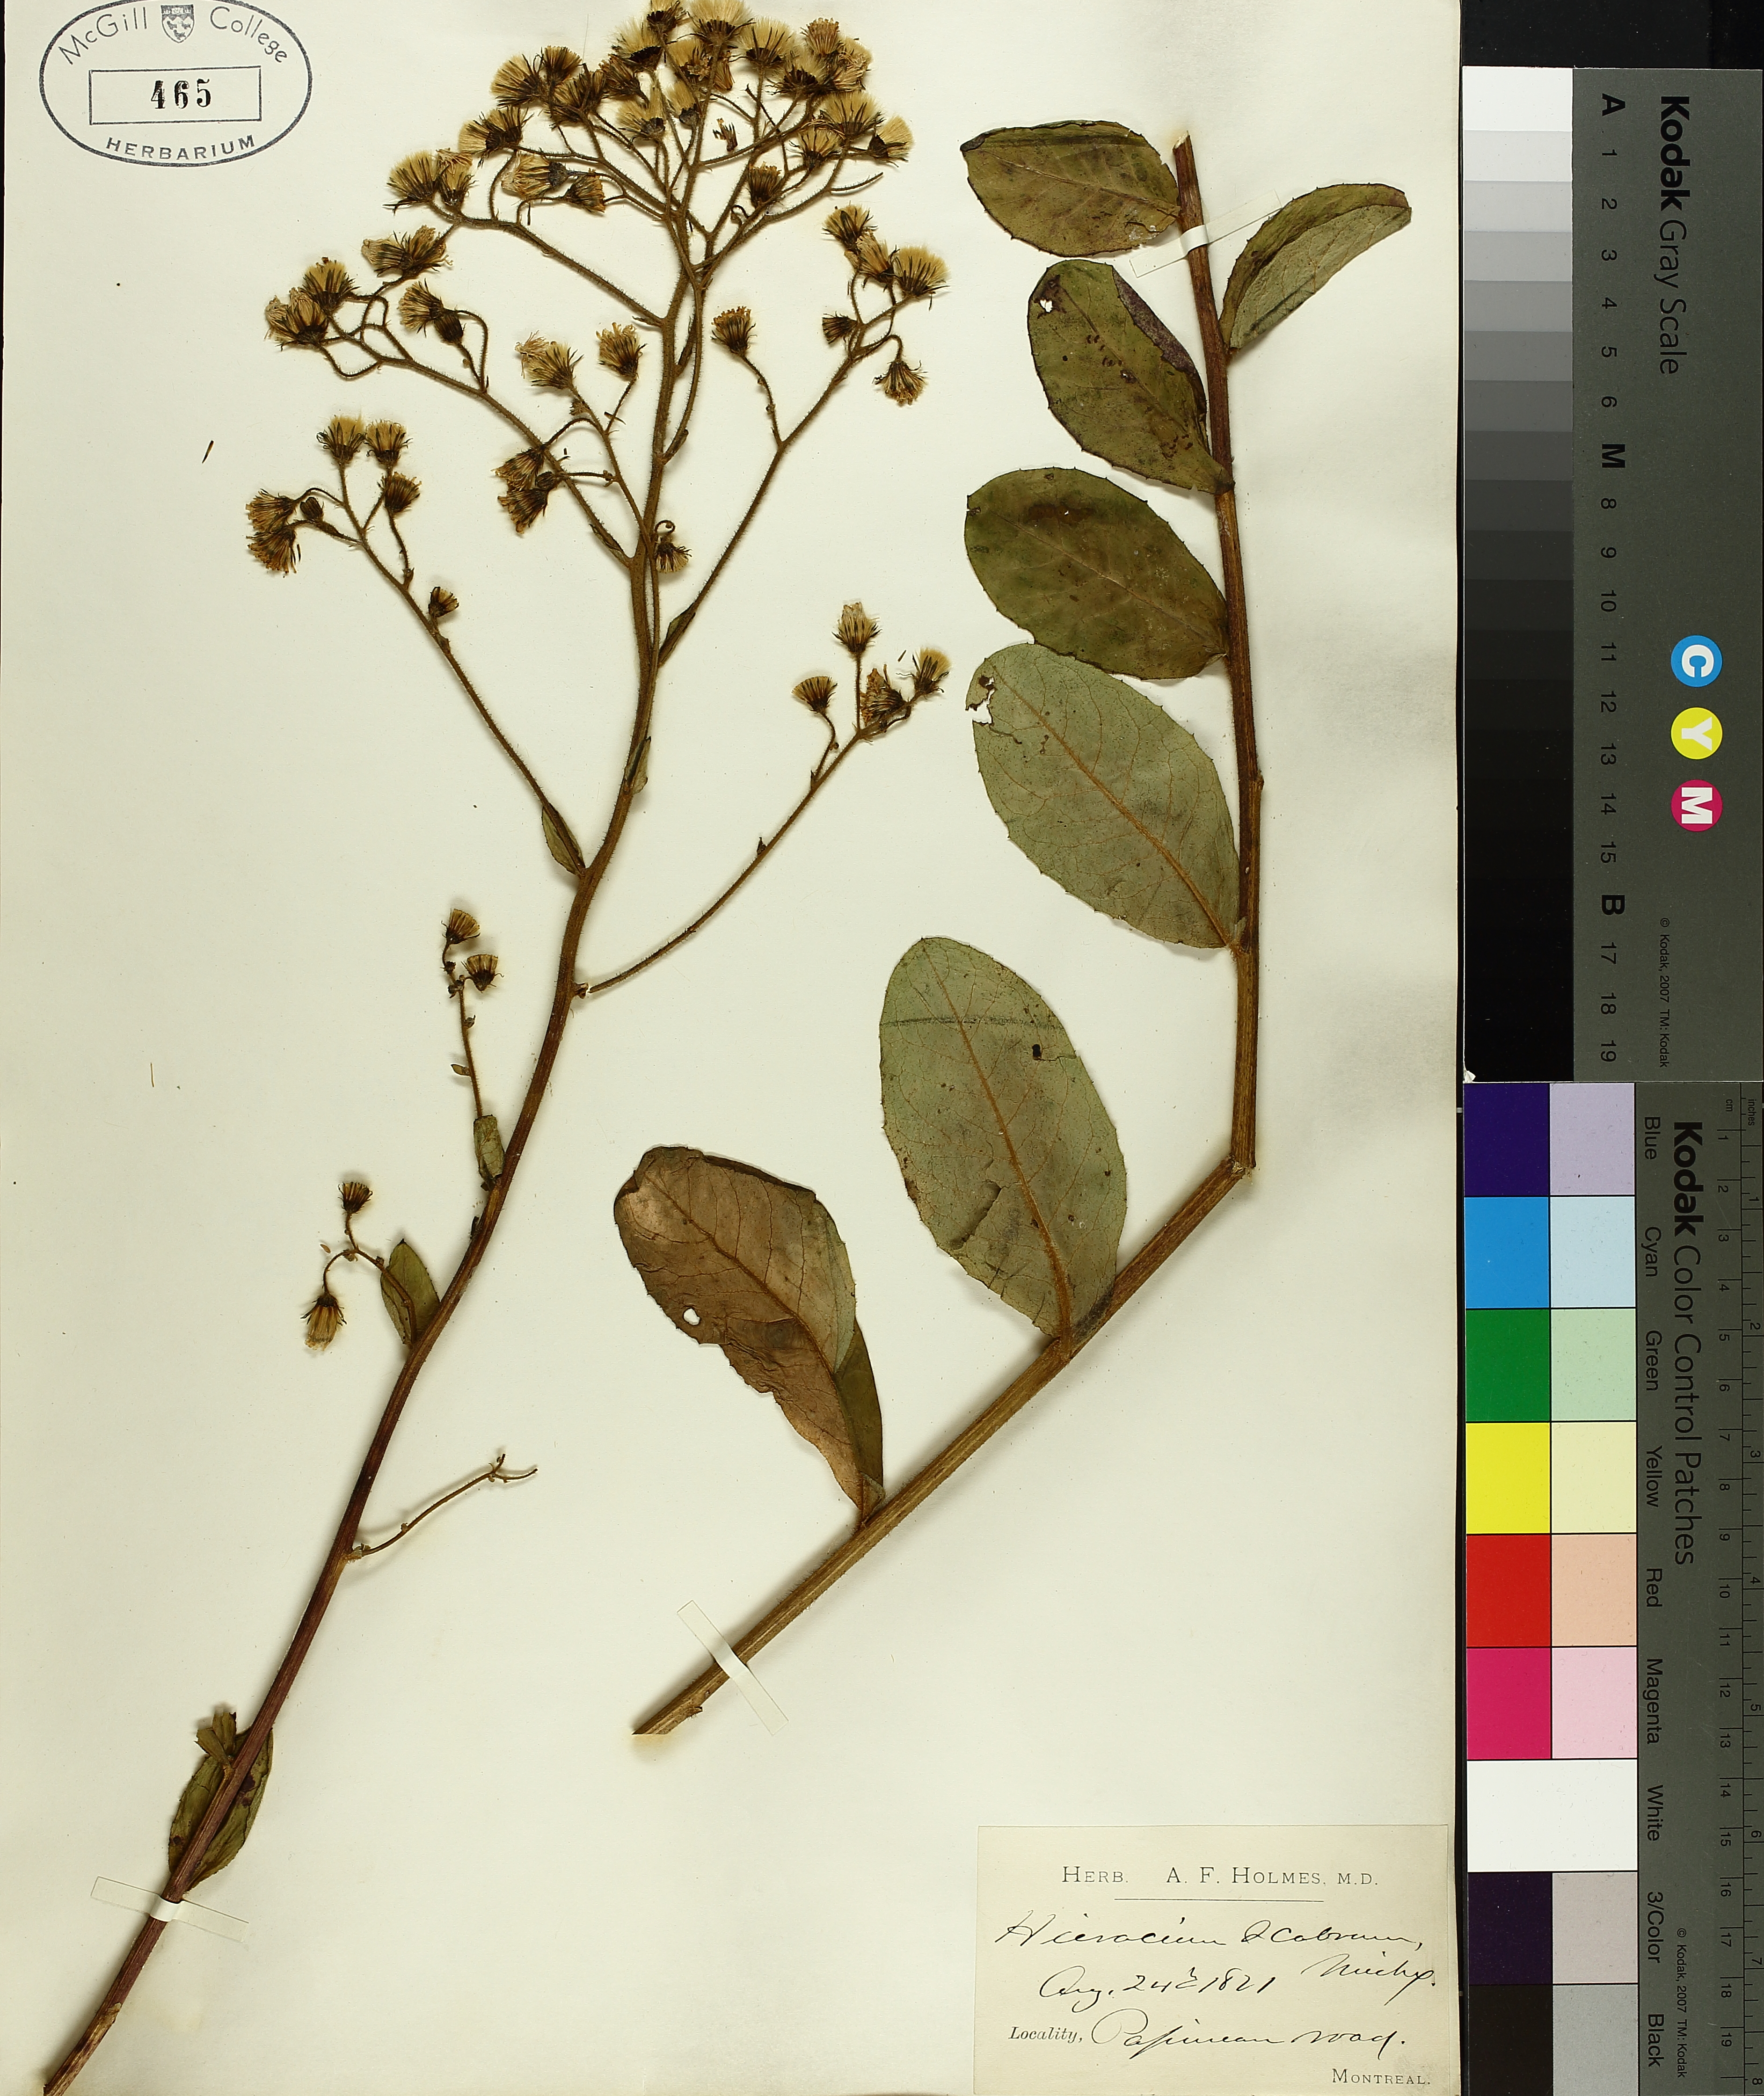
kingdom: Plantae
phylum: Tracheophyta
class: Magnoliopsida
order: Asterales
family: Asteraceae
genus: Hieracium
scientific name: Hieracium scabrum
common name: Rough hawkweed
